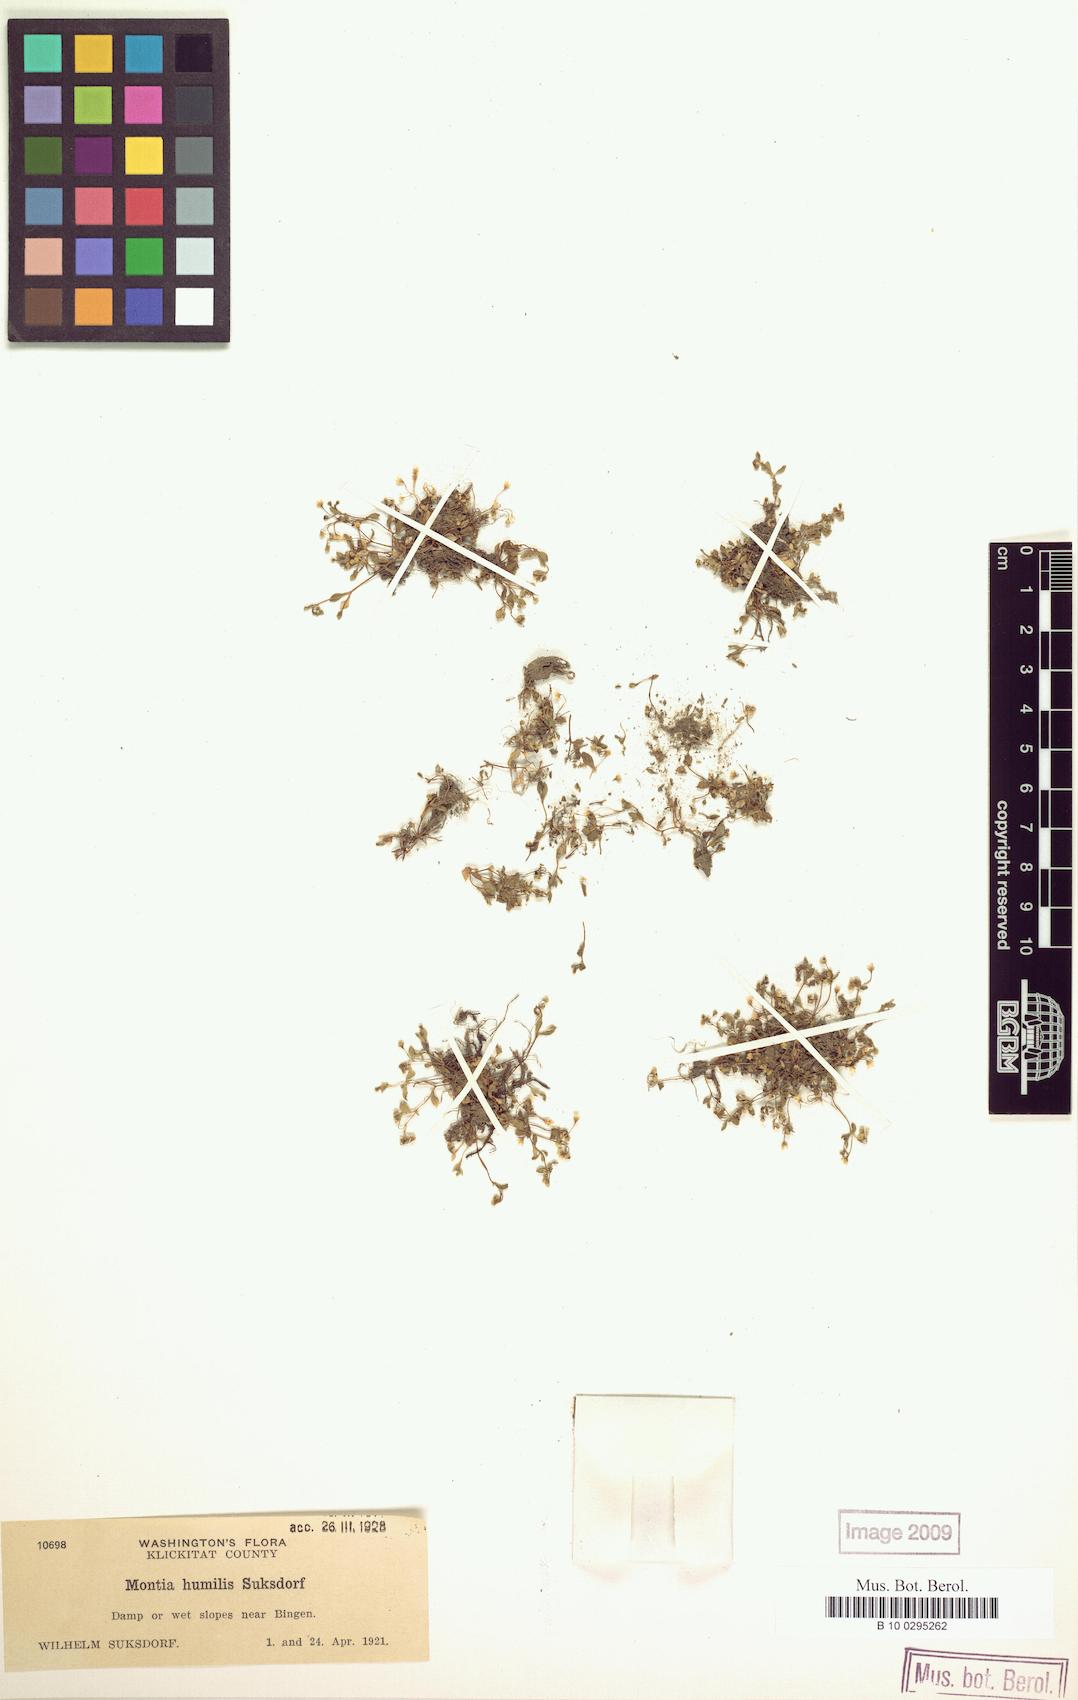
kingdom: Plantae
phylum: Tracheophyta
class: Magnoliopsida
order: Caryophyllales
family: Montiaceae
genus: Montia
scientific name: Montia fontana
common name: Blinks
